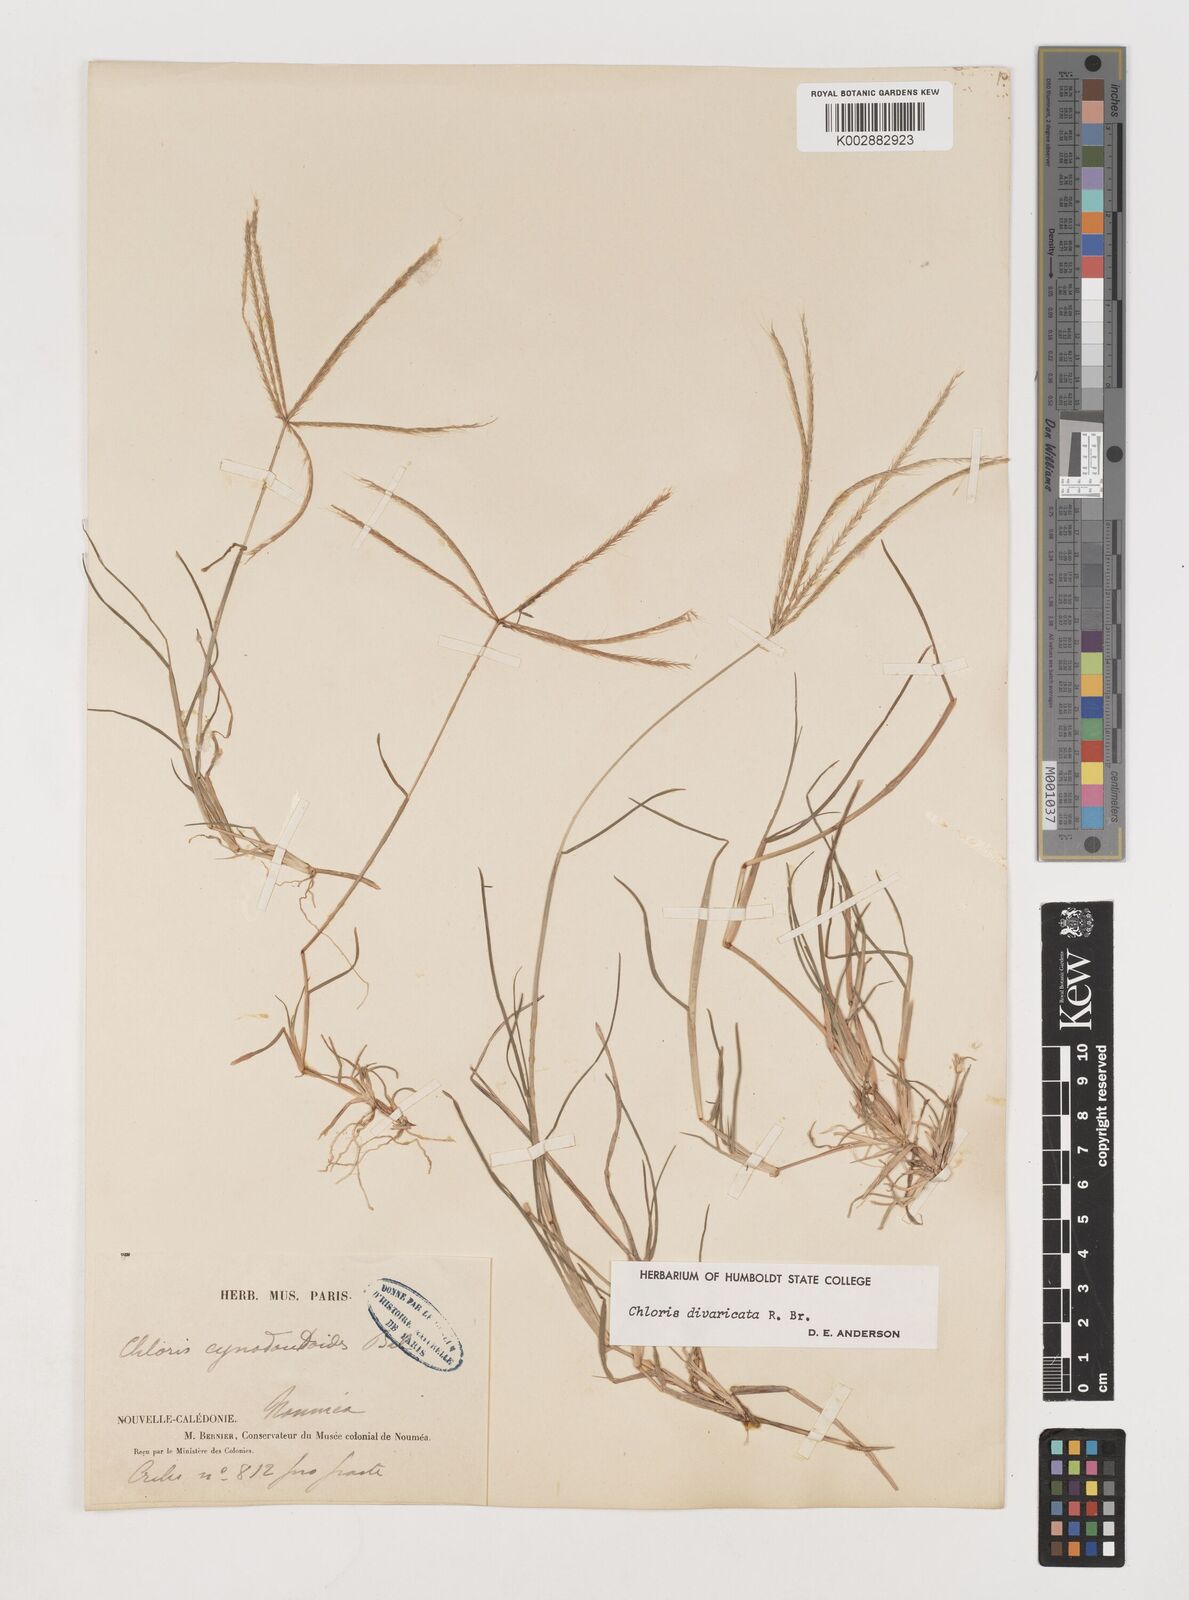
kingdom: Plantae
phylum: Tracheophyta
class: Liliopsida
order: Poales
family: Poaceae
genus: Chloris
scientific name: Chloris divaricata
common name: Spreading windmill grass
